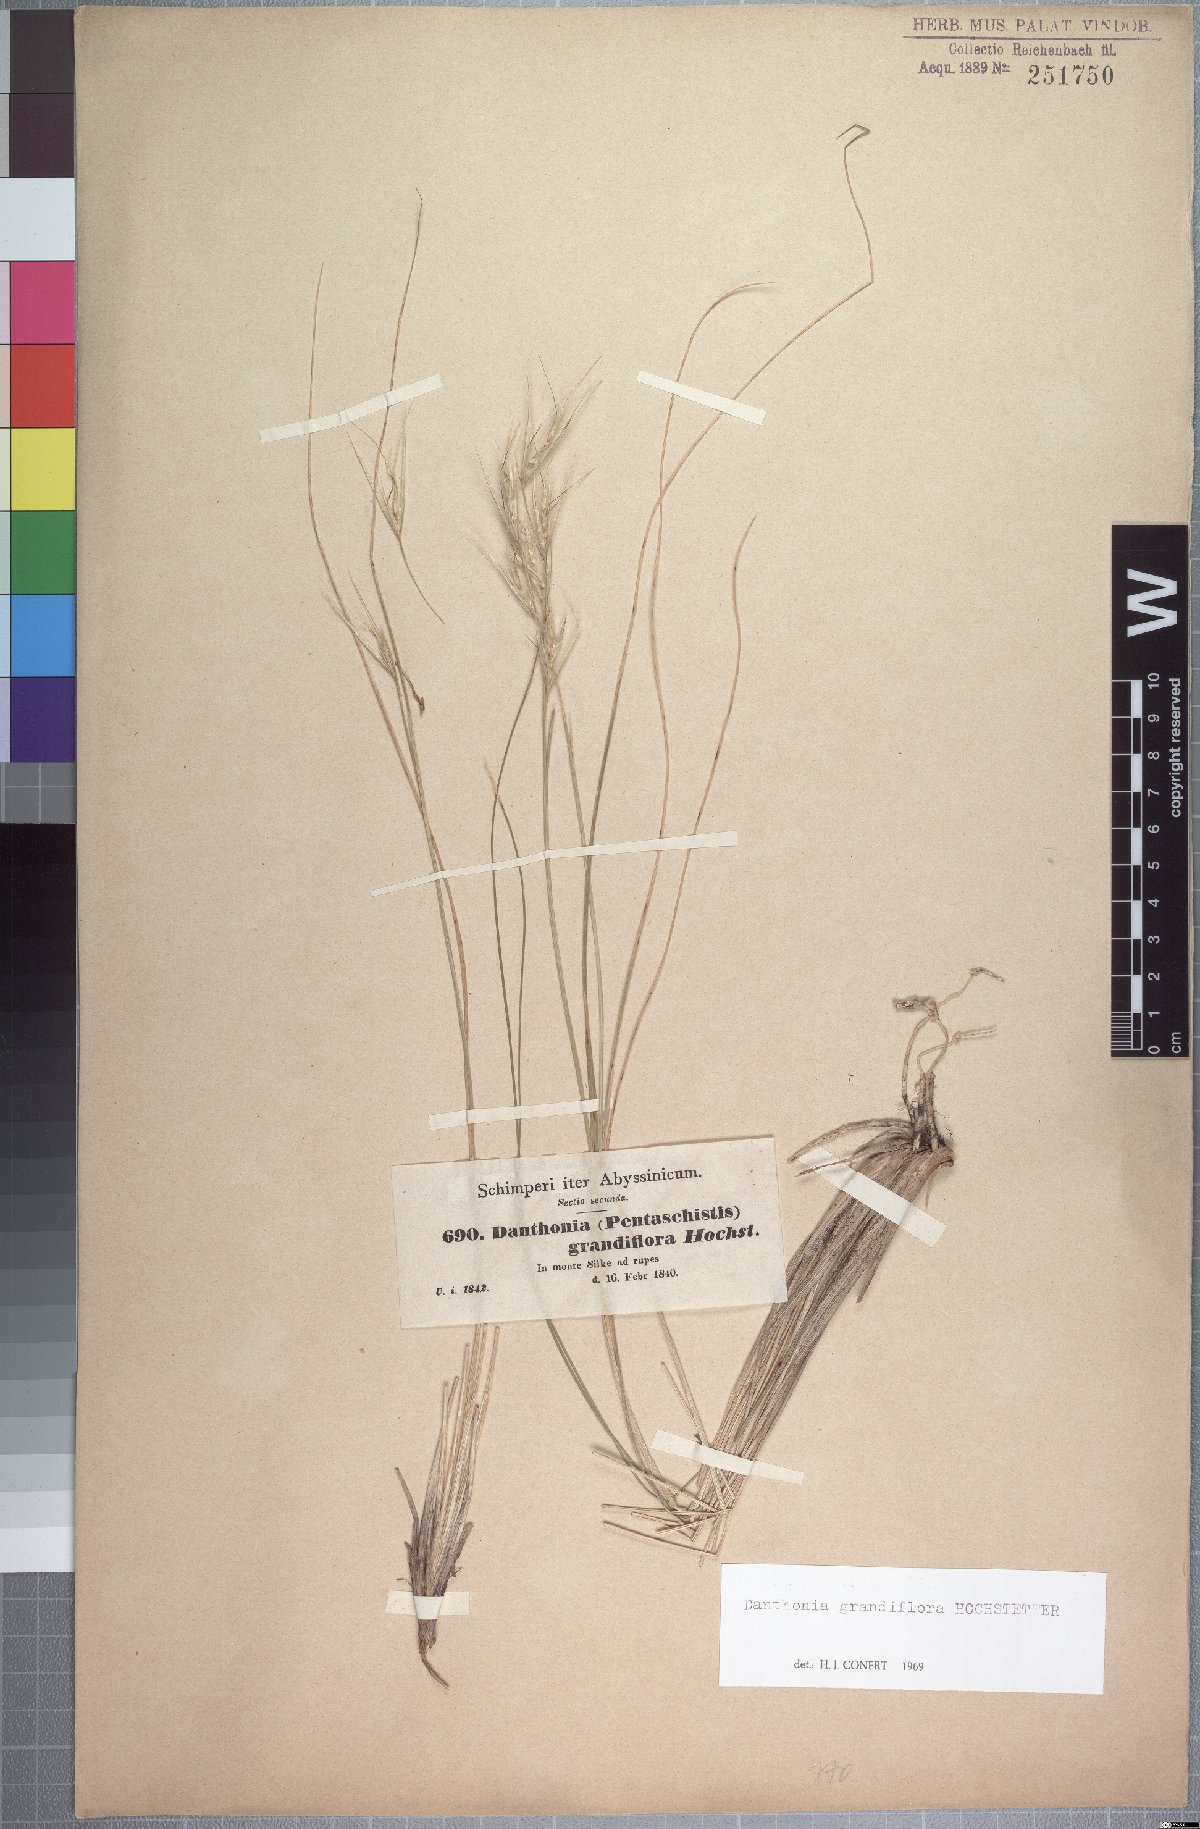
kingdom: Plantae
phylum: Tracheophyta
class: Liliopsida
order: Poales
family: Poaceae
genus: Merxmuellera
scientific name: Merxmuellera grandiflora
